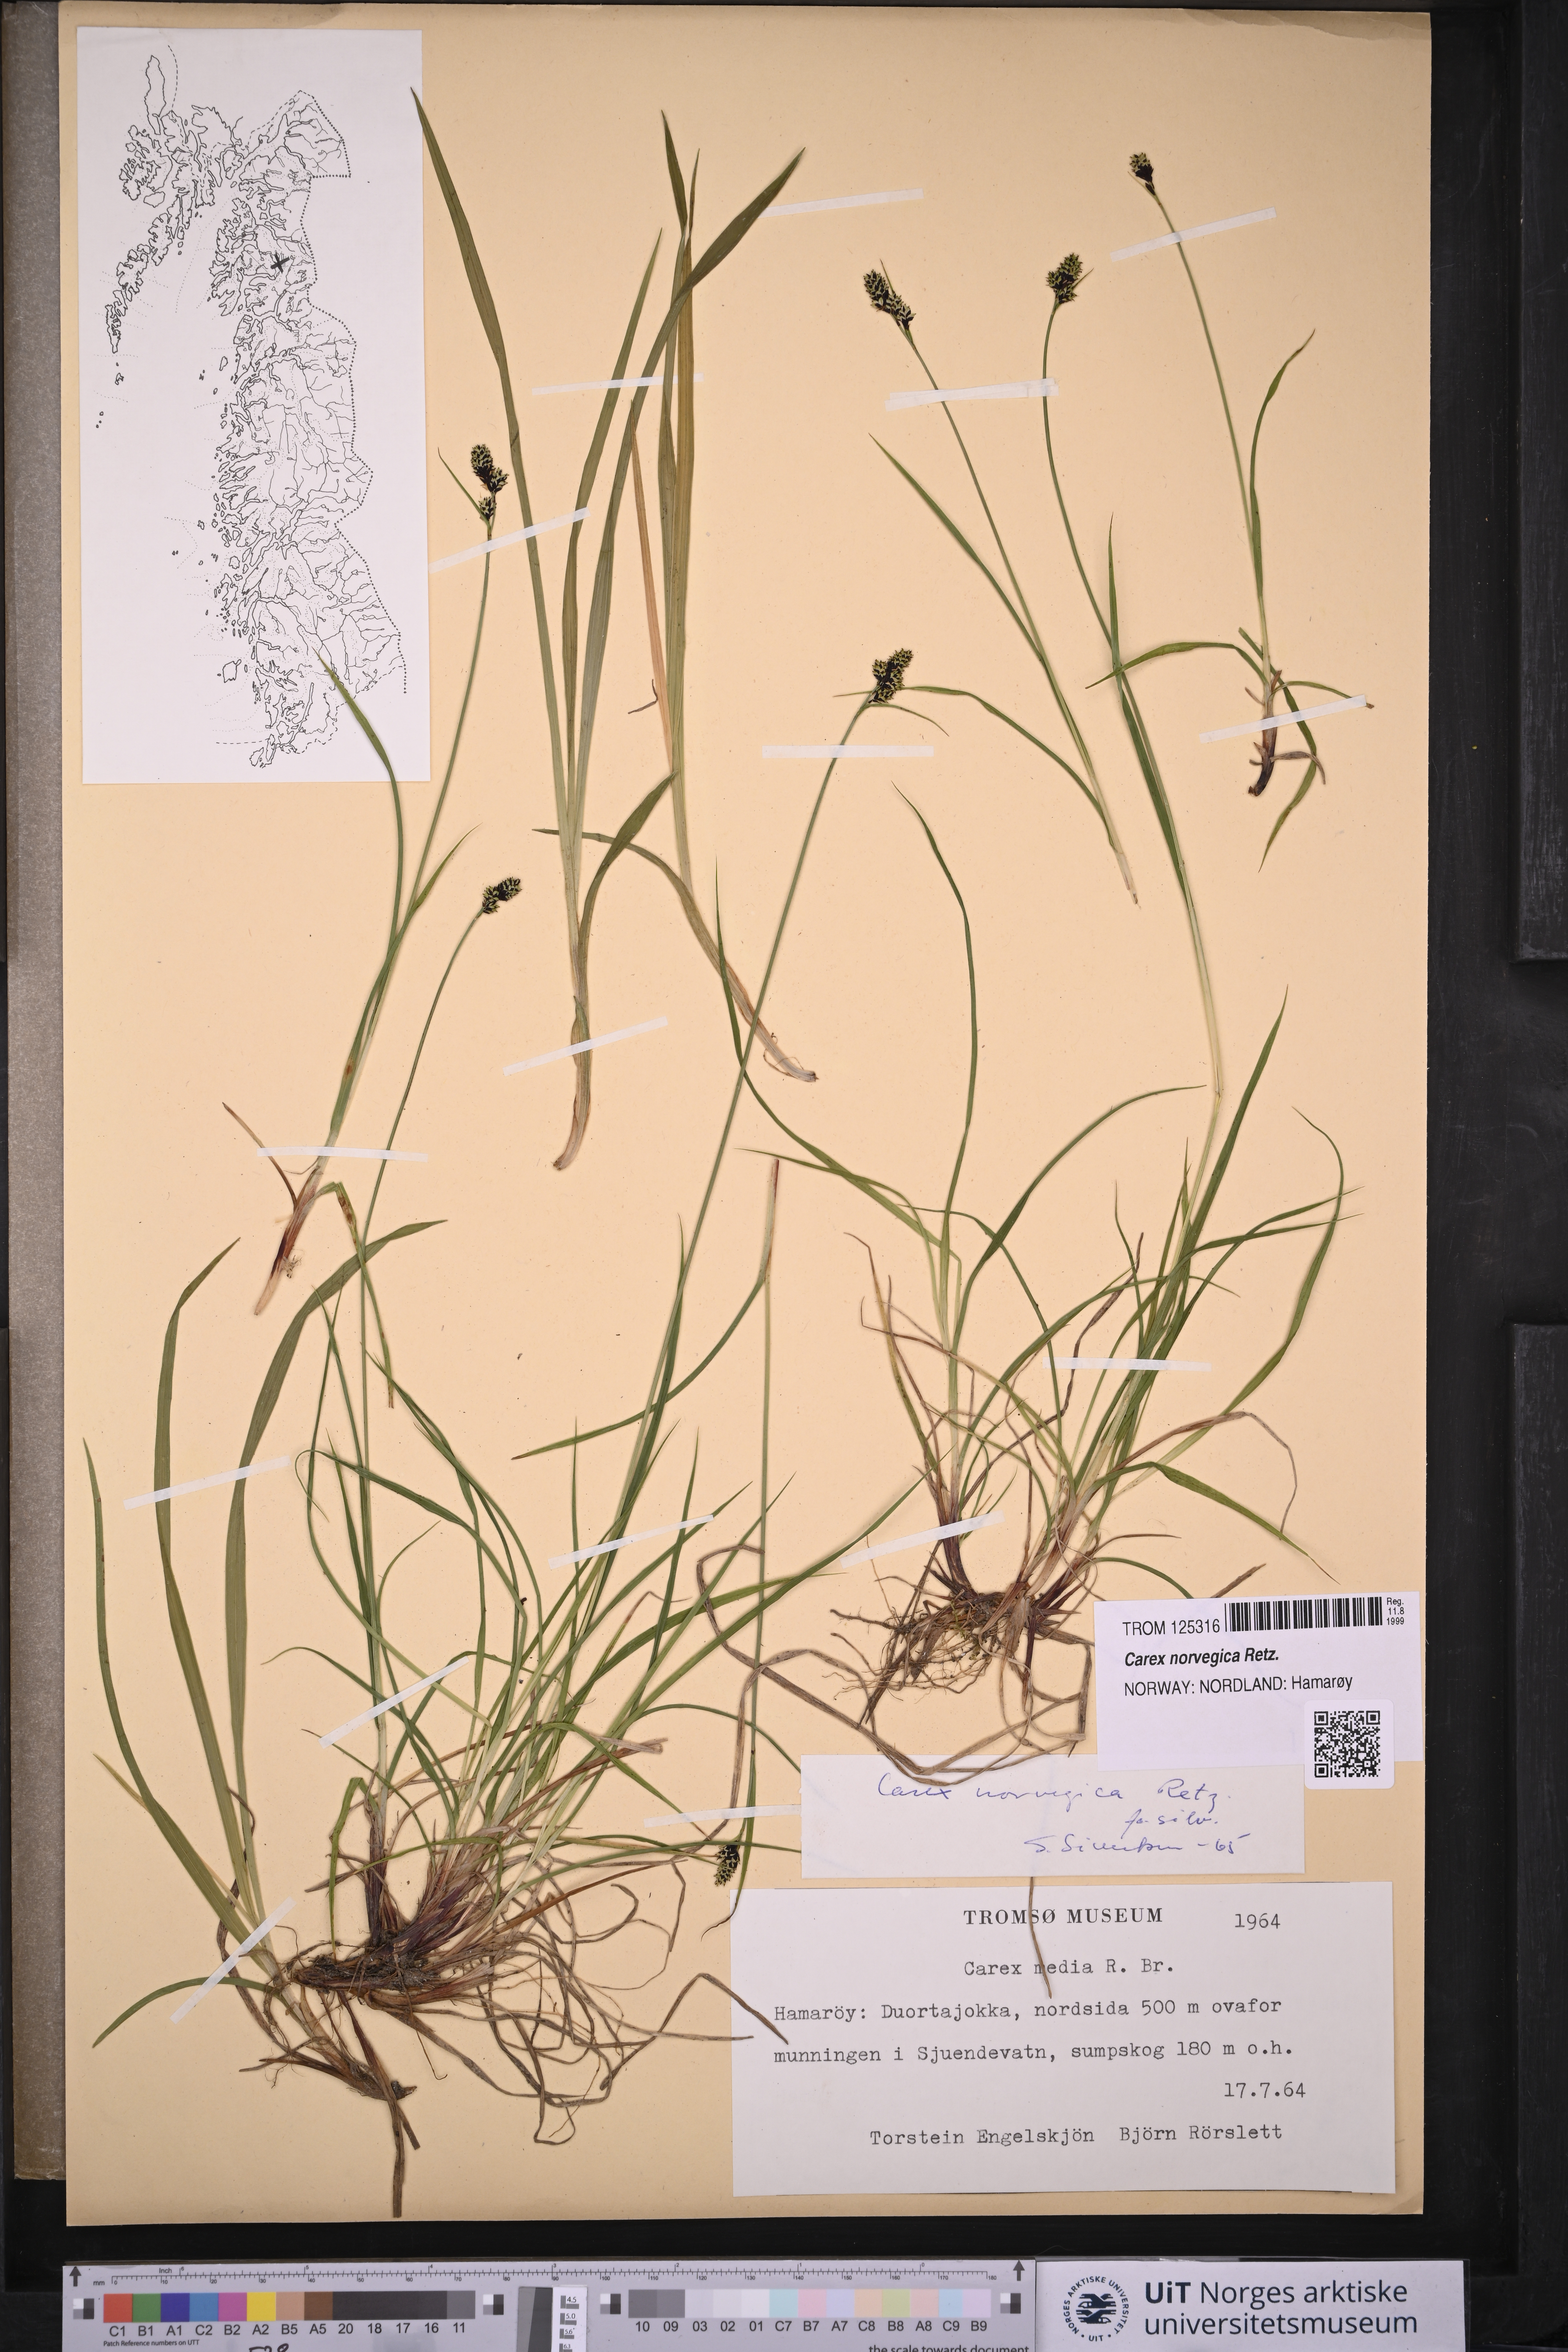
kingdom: Plantae
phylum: Tracheophyta
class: Liliopsida
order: Poales
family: Cyperaceae
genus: Carex
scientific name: Carex norvegica
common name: Close-headed alpine-sedge
